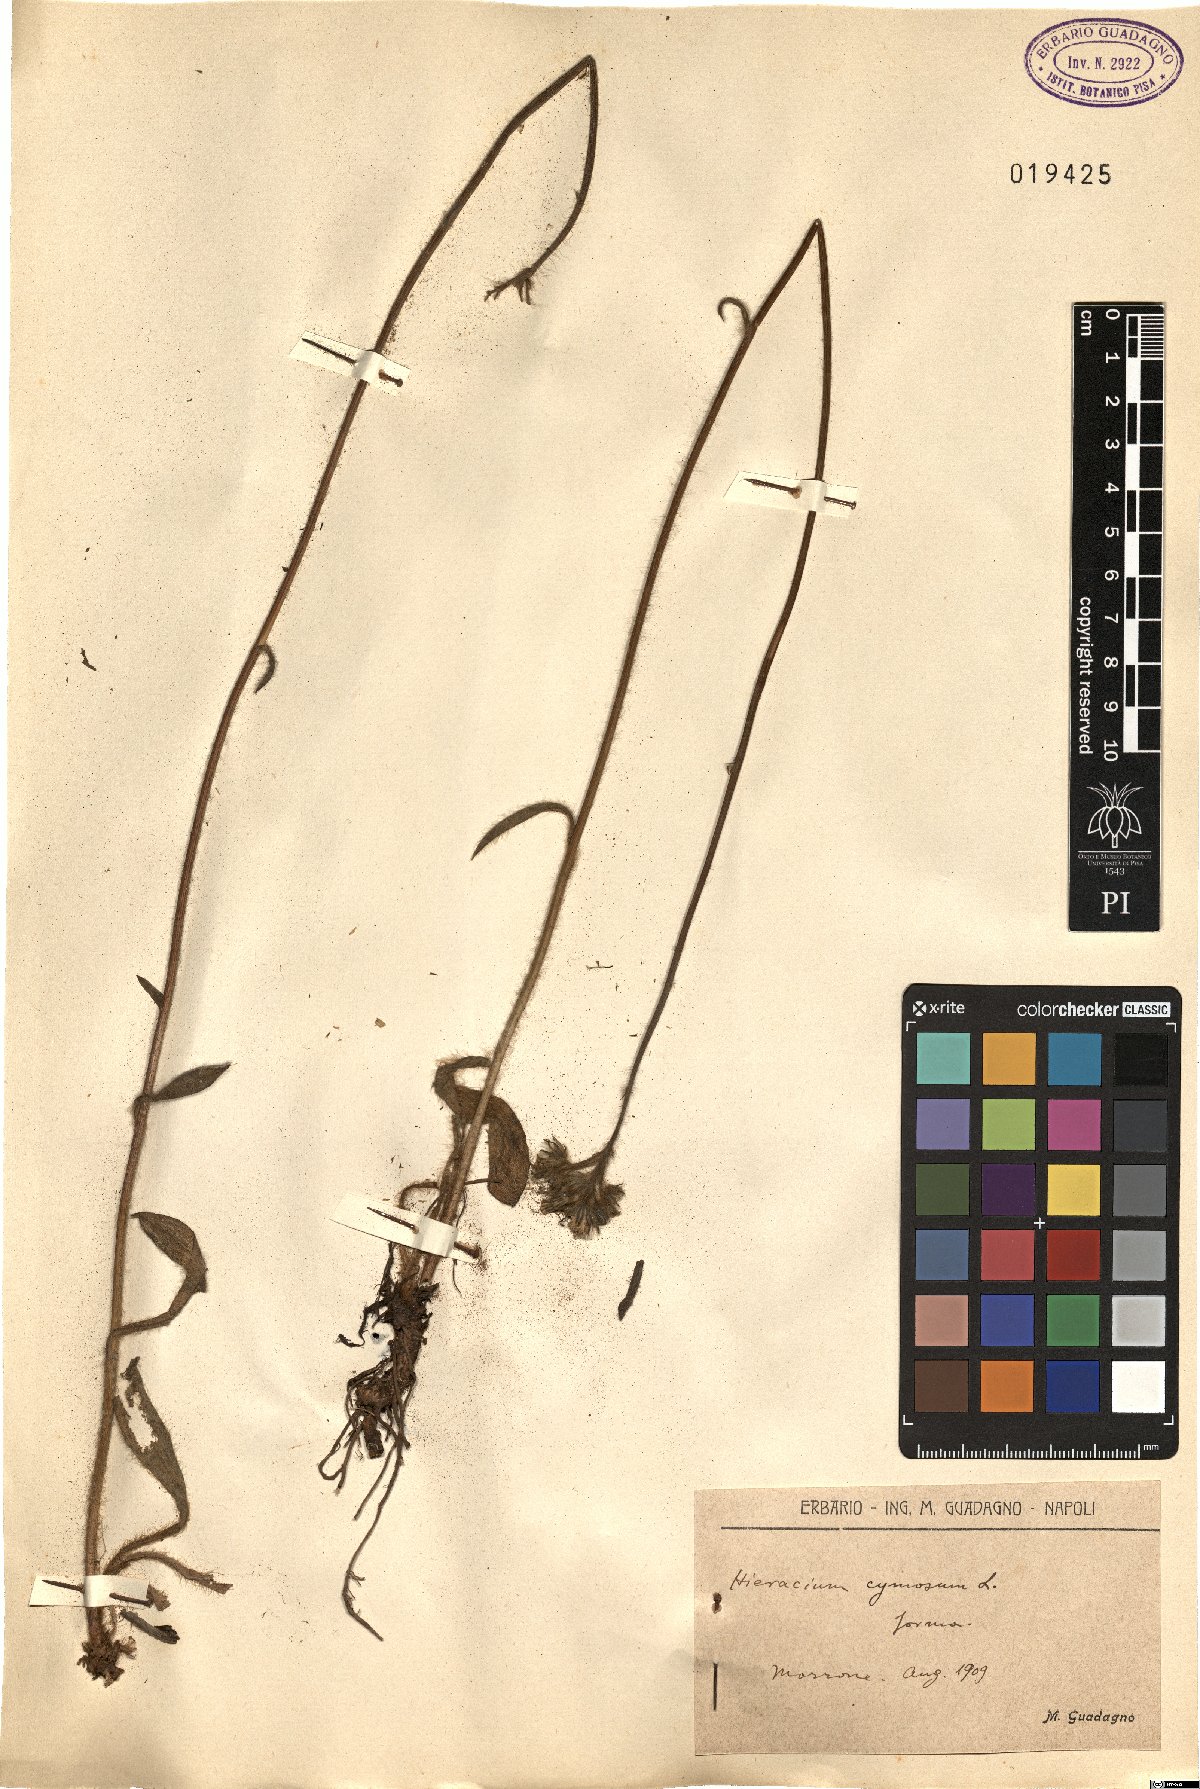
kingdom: Plantae
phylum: Tracheophyta
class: Magnoliopsida
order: Asterales
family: Asteraceae
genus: Pilosella
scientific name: Pilosella cymosa
